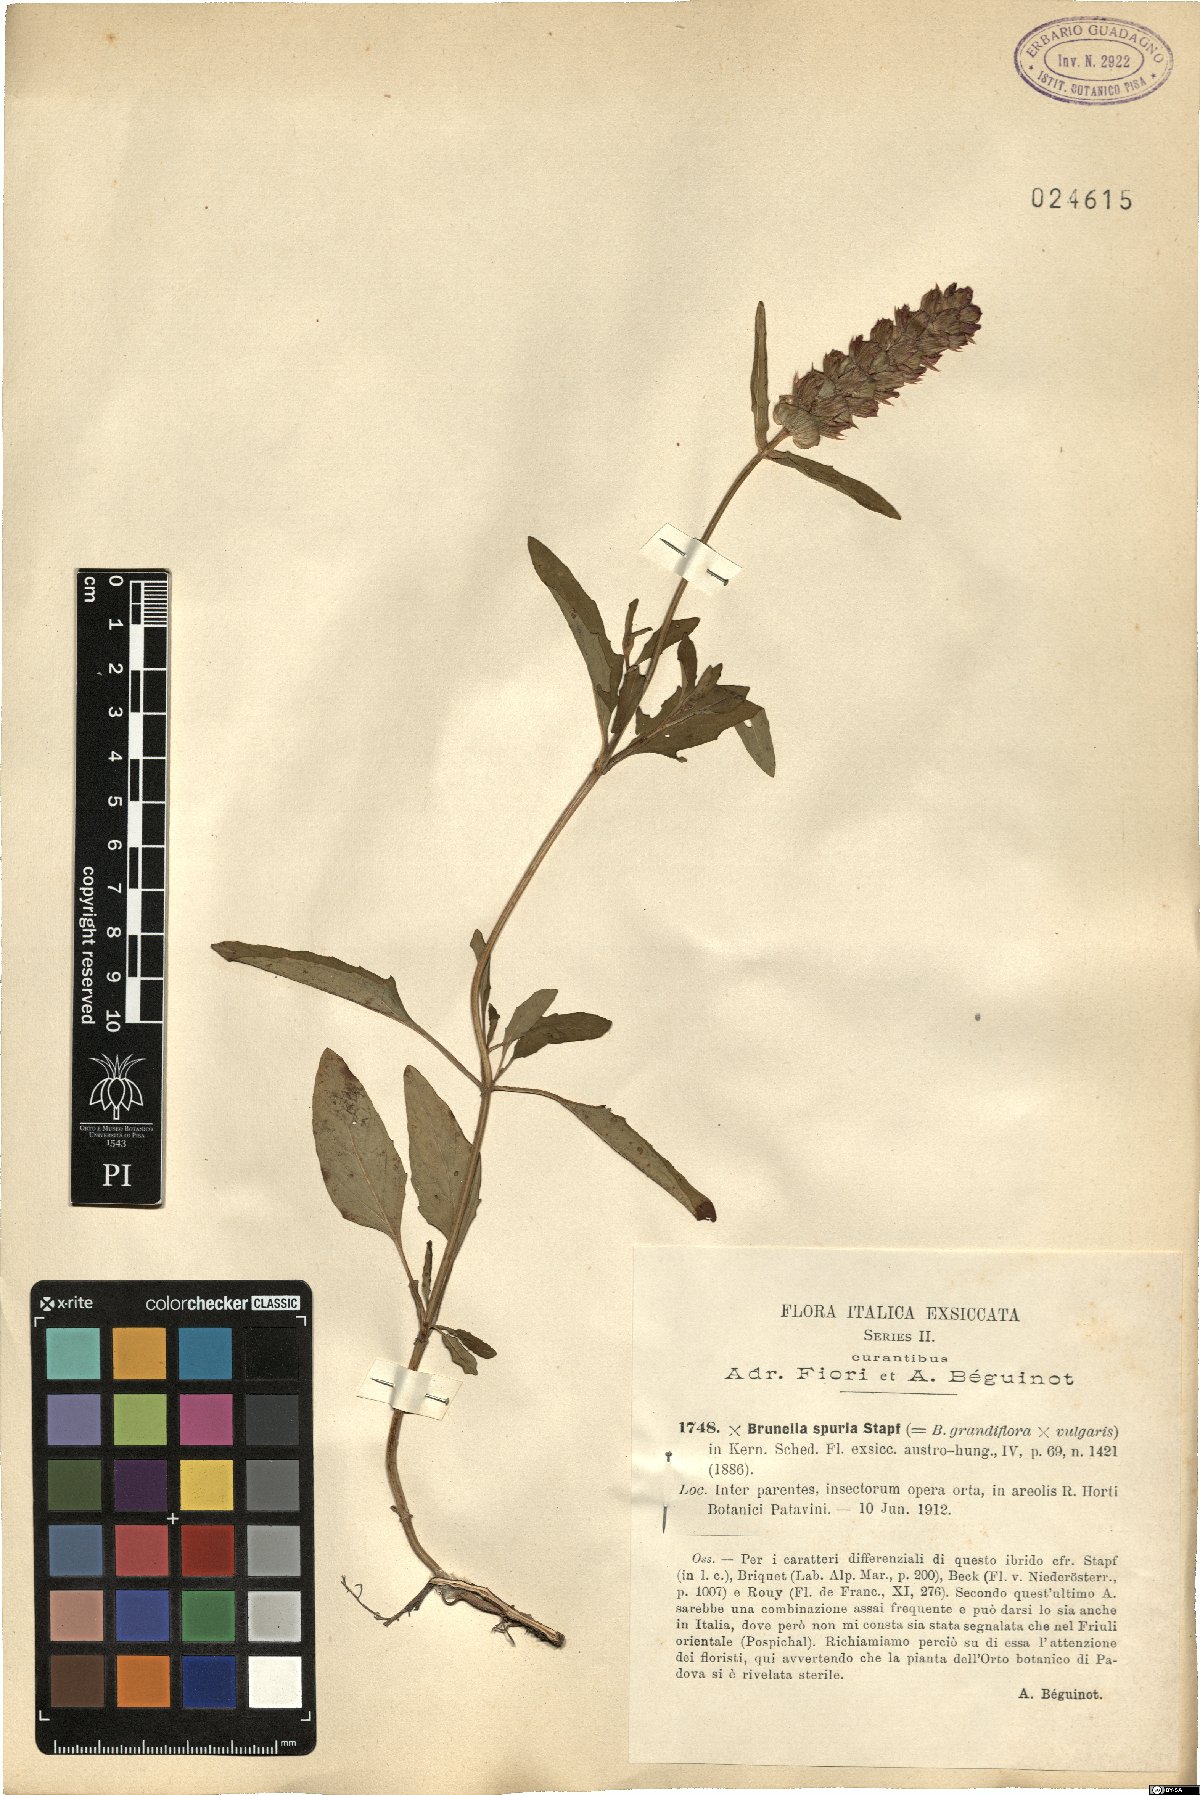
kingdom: Plantae
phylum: Tracheophyta
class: Magnoliopsida
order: Lamiales
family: Lamiaceae
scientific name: Lamiaceae
